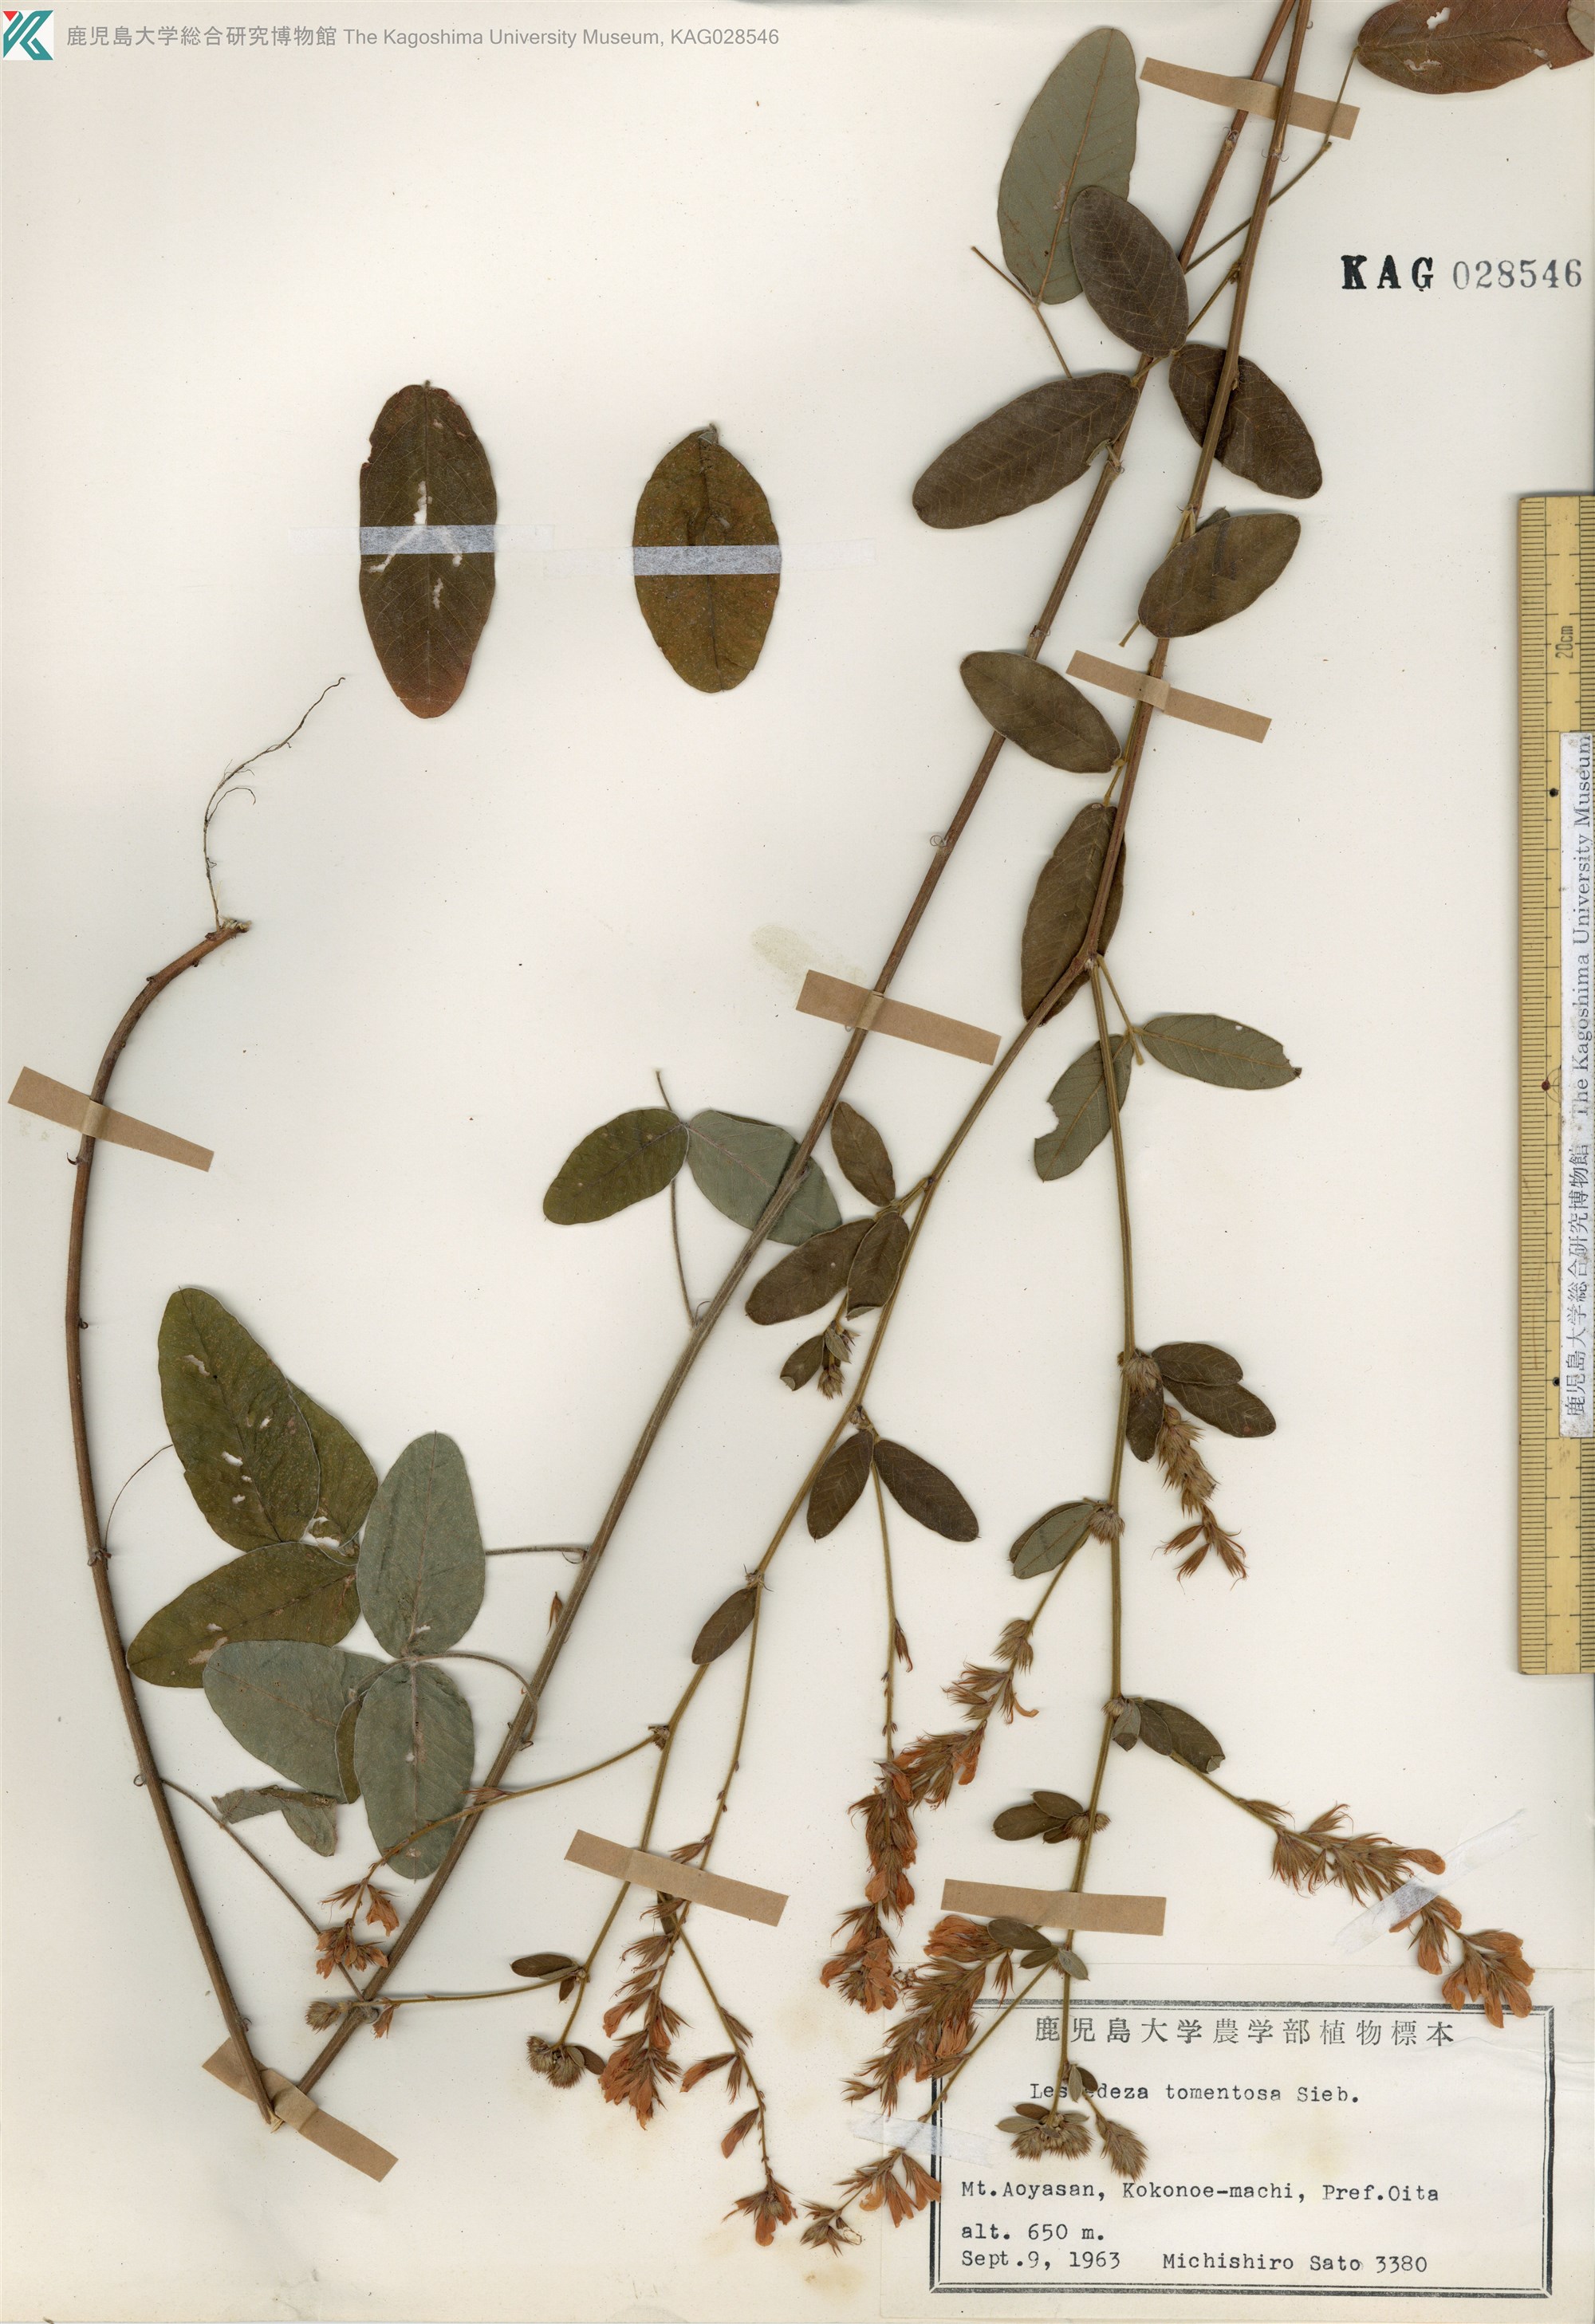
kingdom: Plantae
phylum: Tracheophyta
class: Magnoliopsida
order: Fabales
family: Fabaceae
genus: Lespedeza
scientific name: Lespedeza tomentosa
